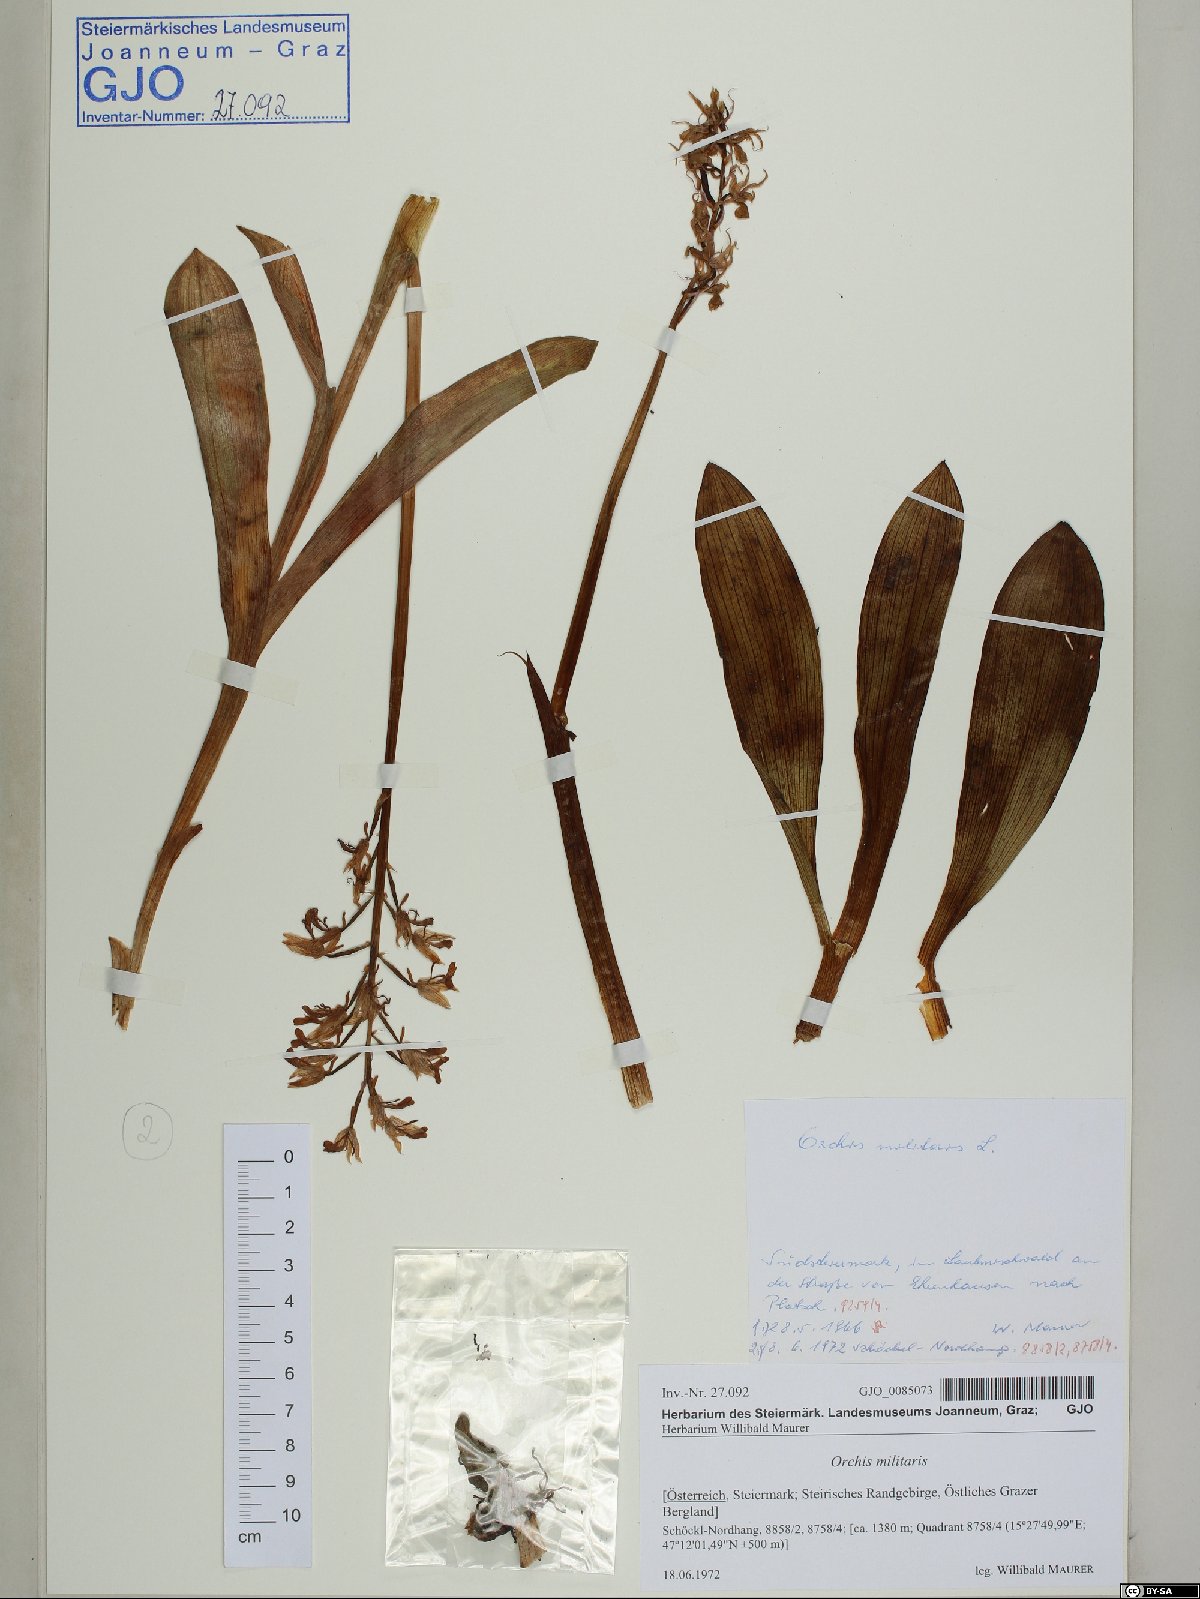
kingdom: Plantae
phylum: Tracheophyta
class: Liliopsida
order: Asparagales
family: Orchidaceae
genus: Orchis
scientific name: Orchis militaris
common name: Military orchid
